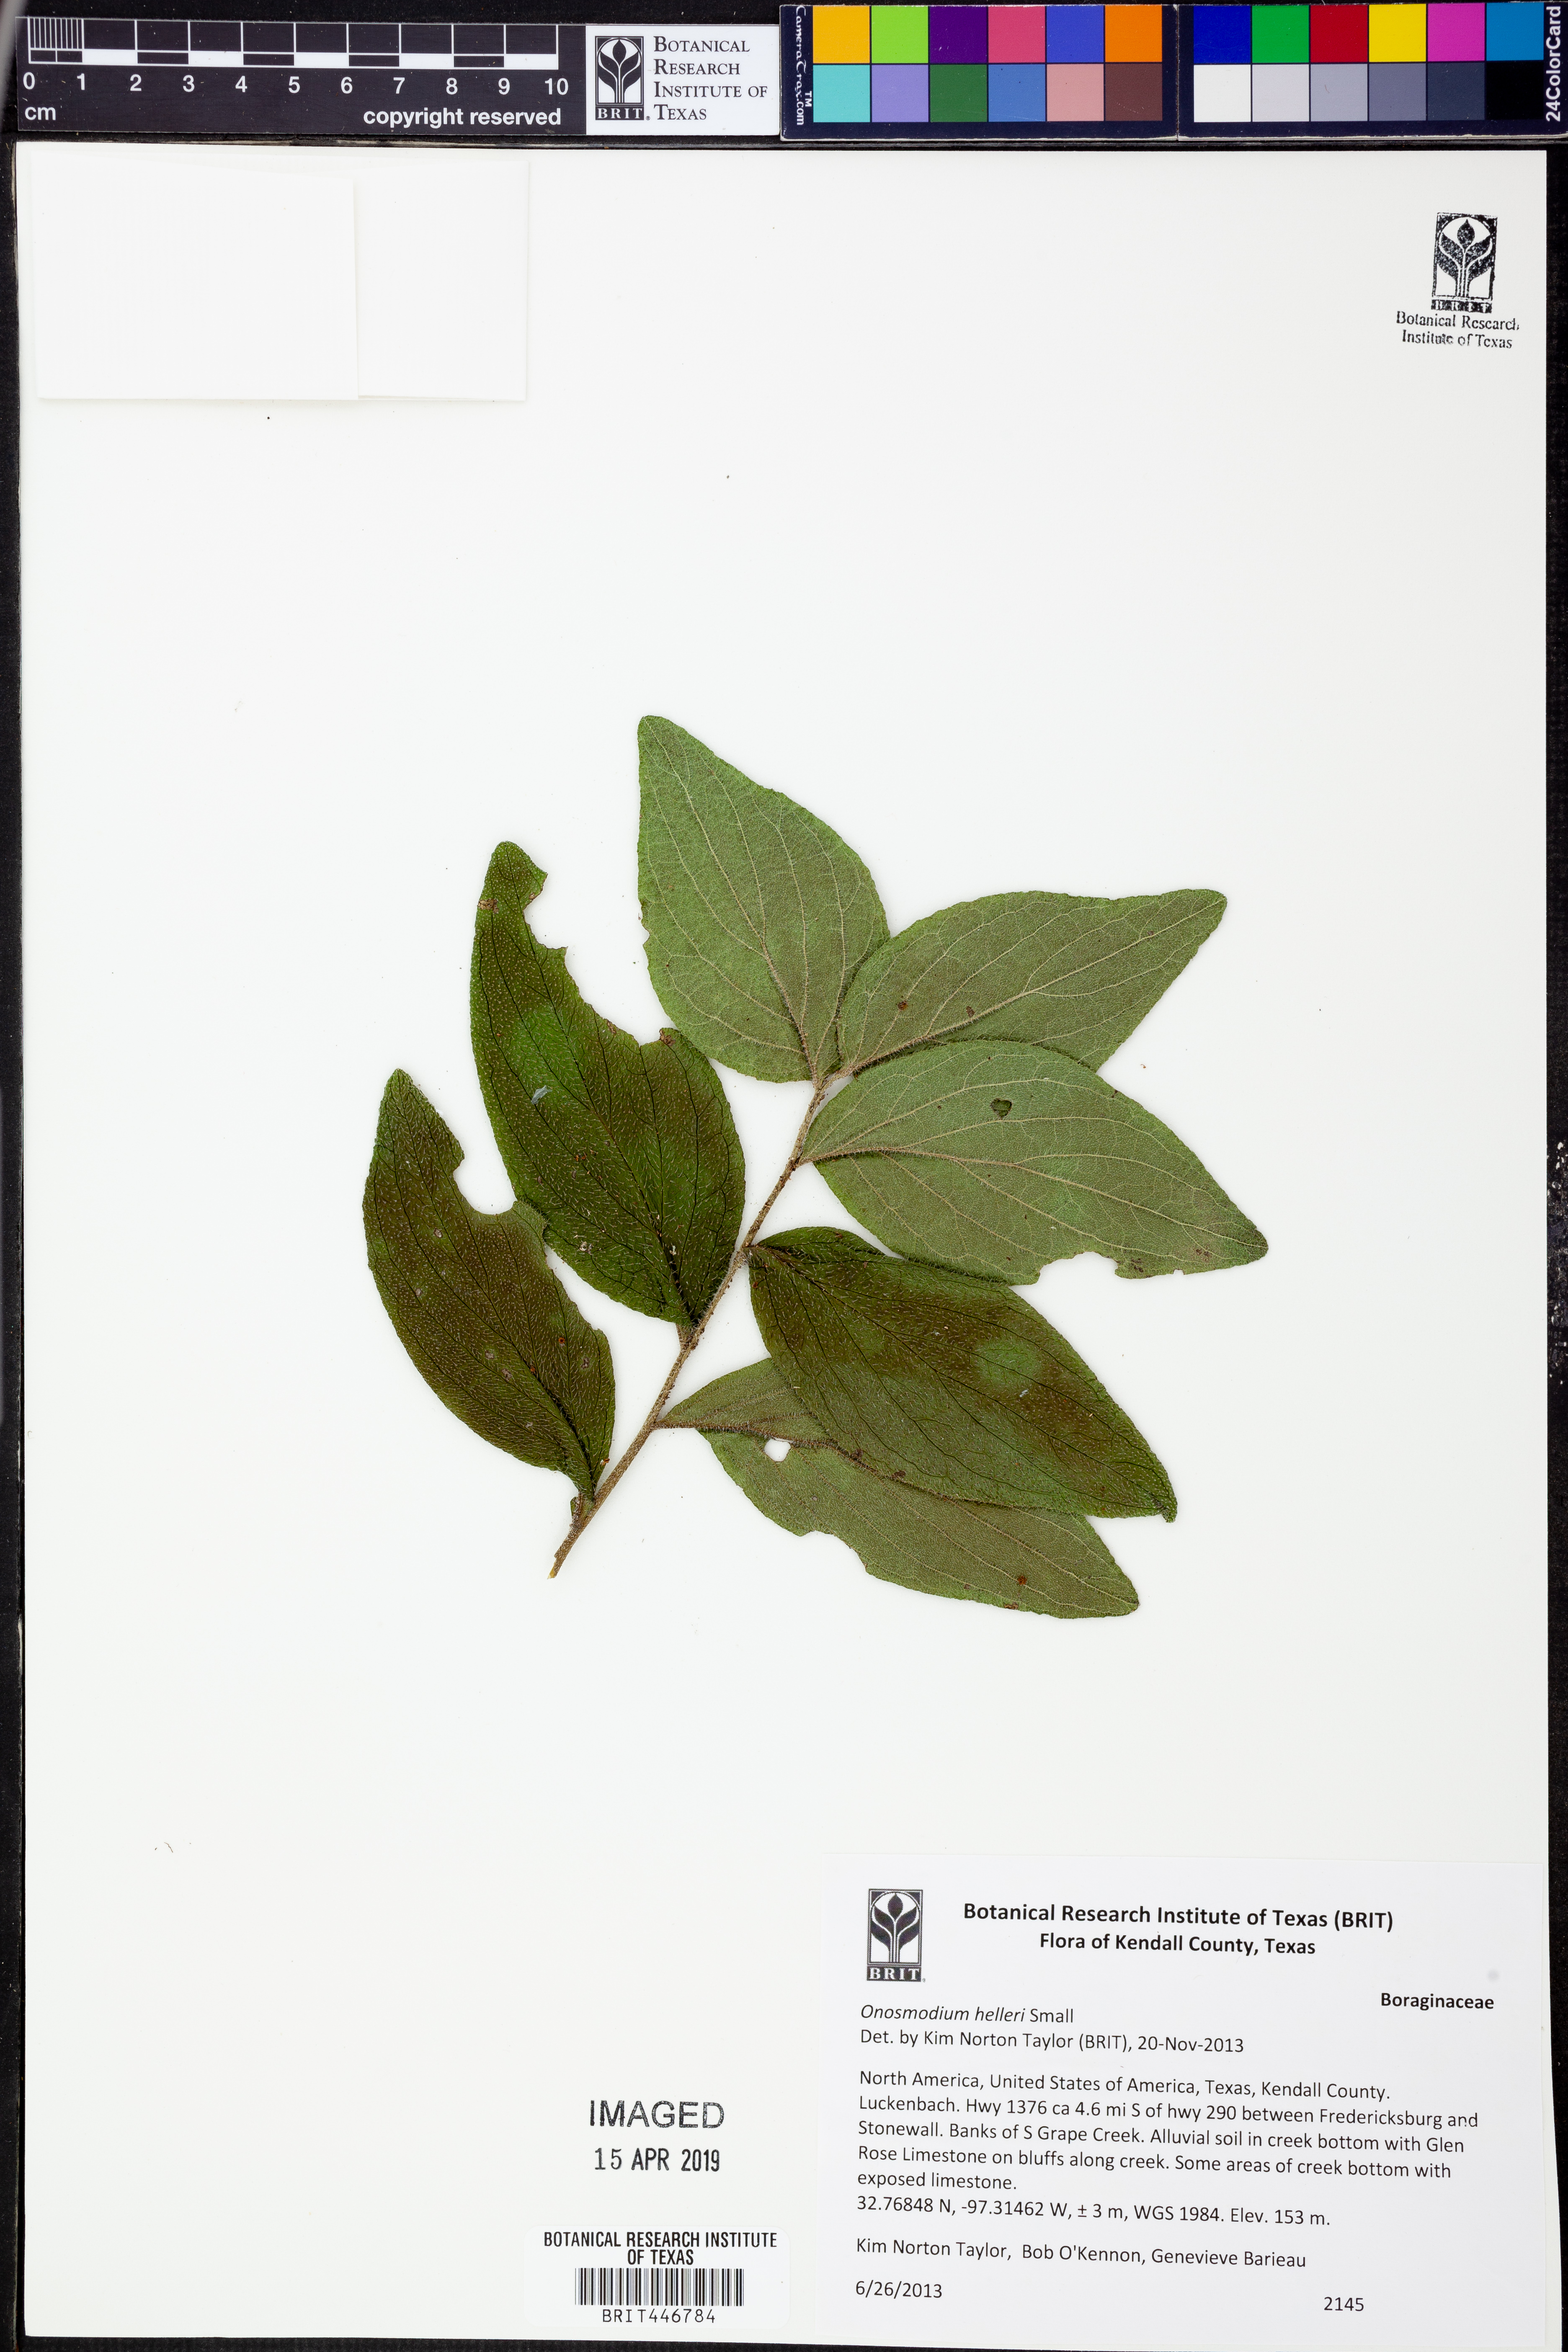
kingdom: Plantae
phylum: Tracheophyta
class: Magnoliopsida
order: Boraginales
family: Boraginaceae
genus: Lithospermum
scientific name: Lithospermum helleri
